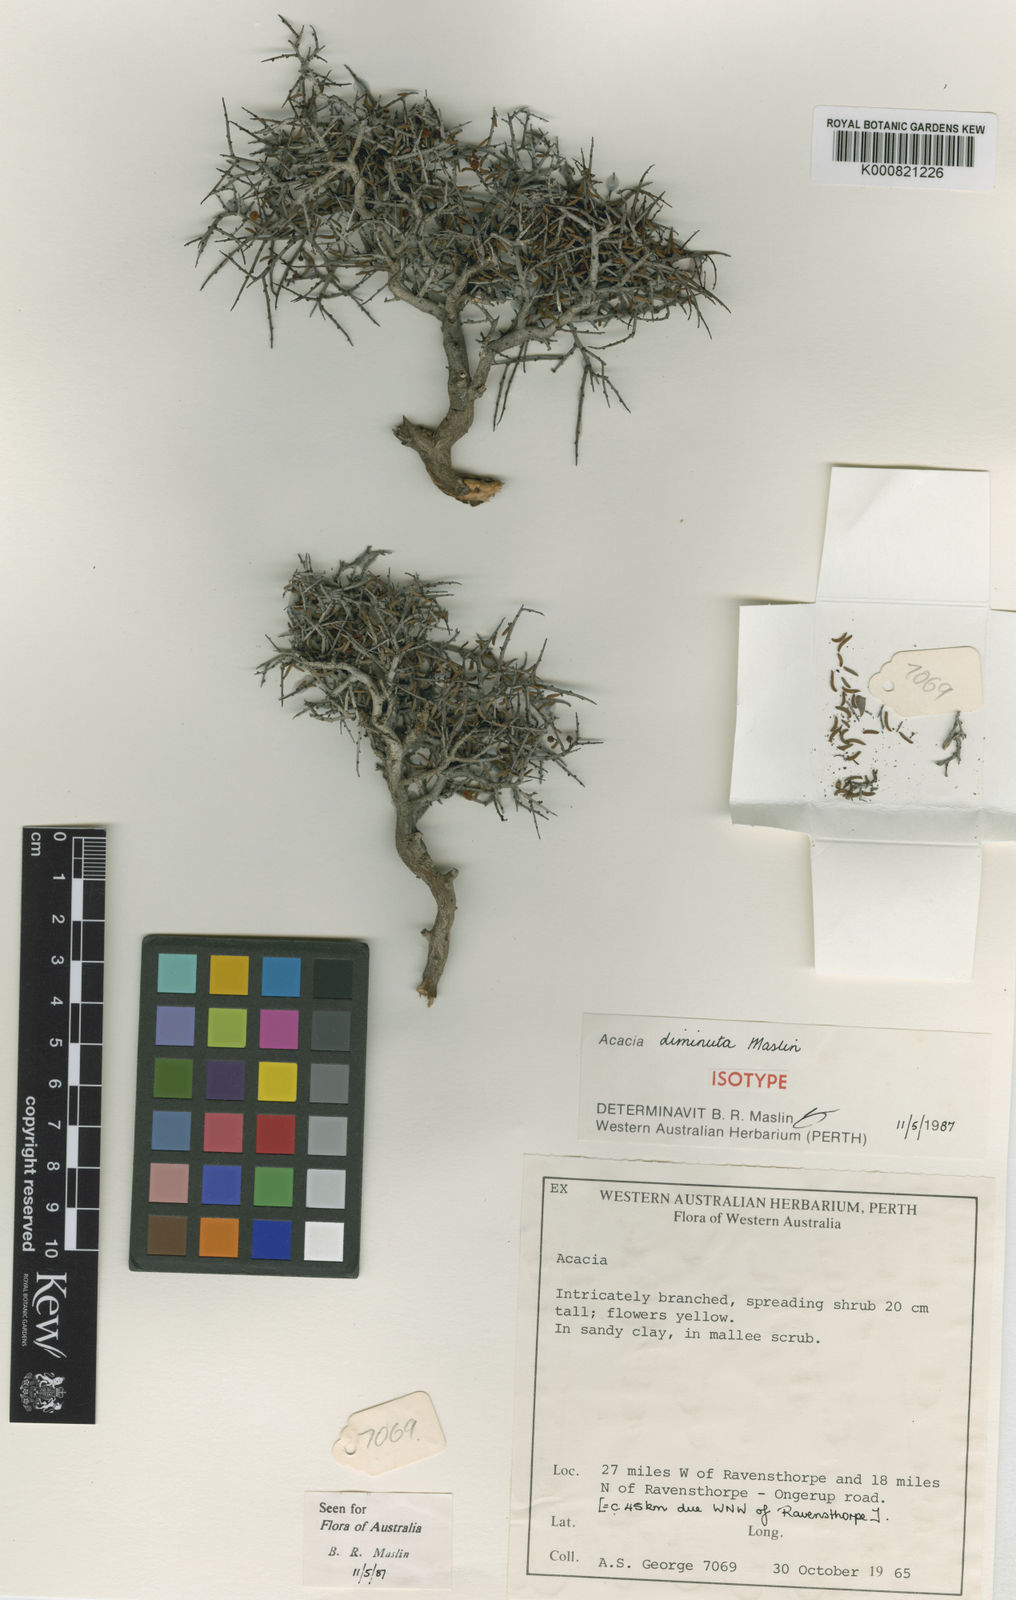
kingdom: Plantae
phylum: Tracheophyta
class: Magnoliopsida
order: Fabales
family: Fabaceae
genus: Acacia
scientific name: Acacia diminuta
